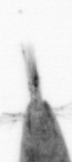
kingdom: Animalia
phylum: Arthropoda
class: Maxillopoda
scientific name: Maxillopoda
